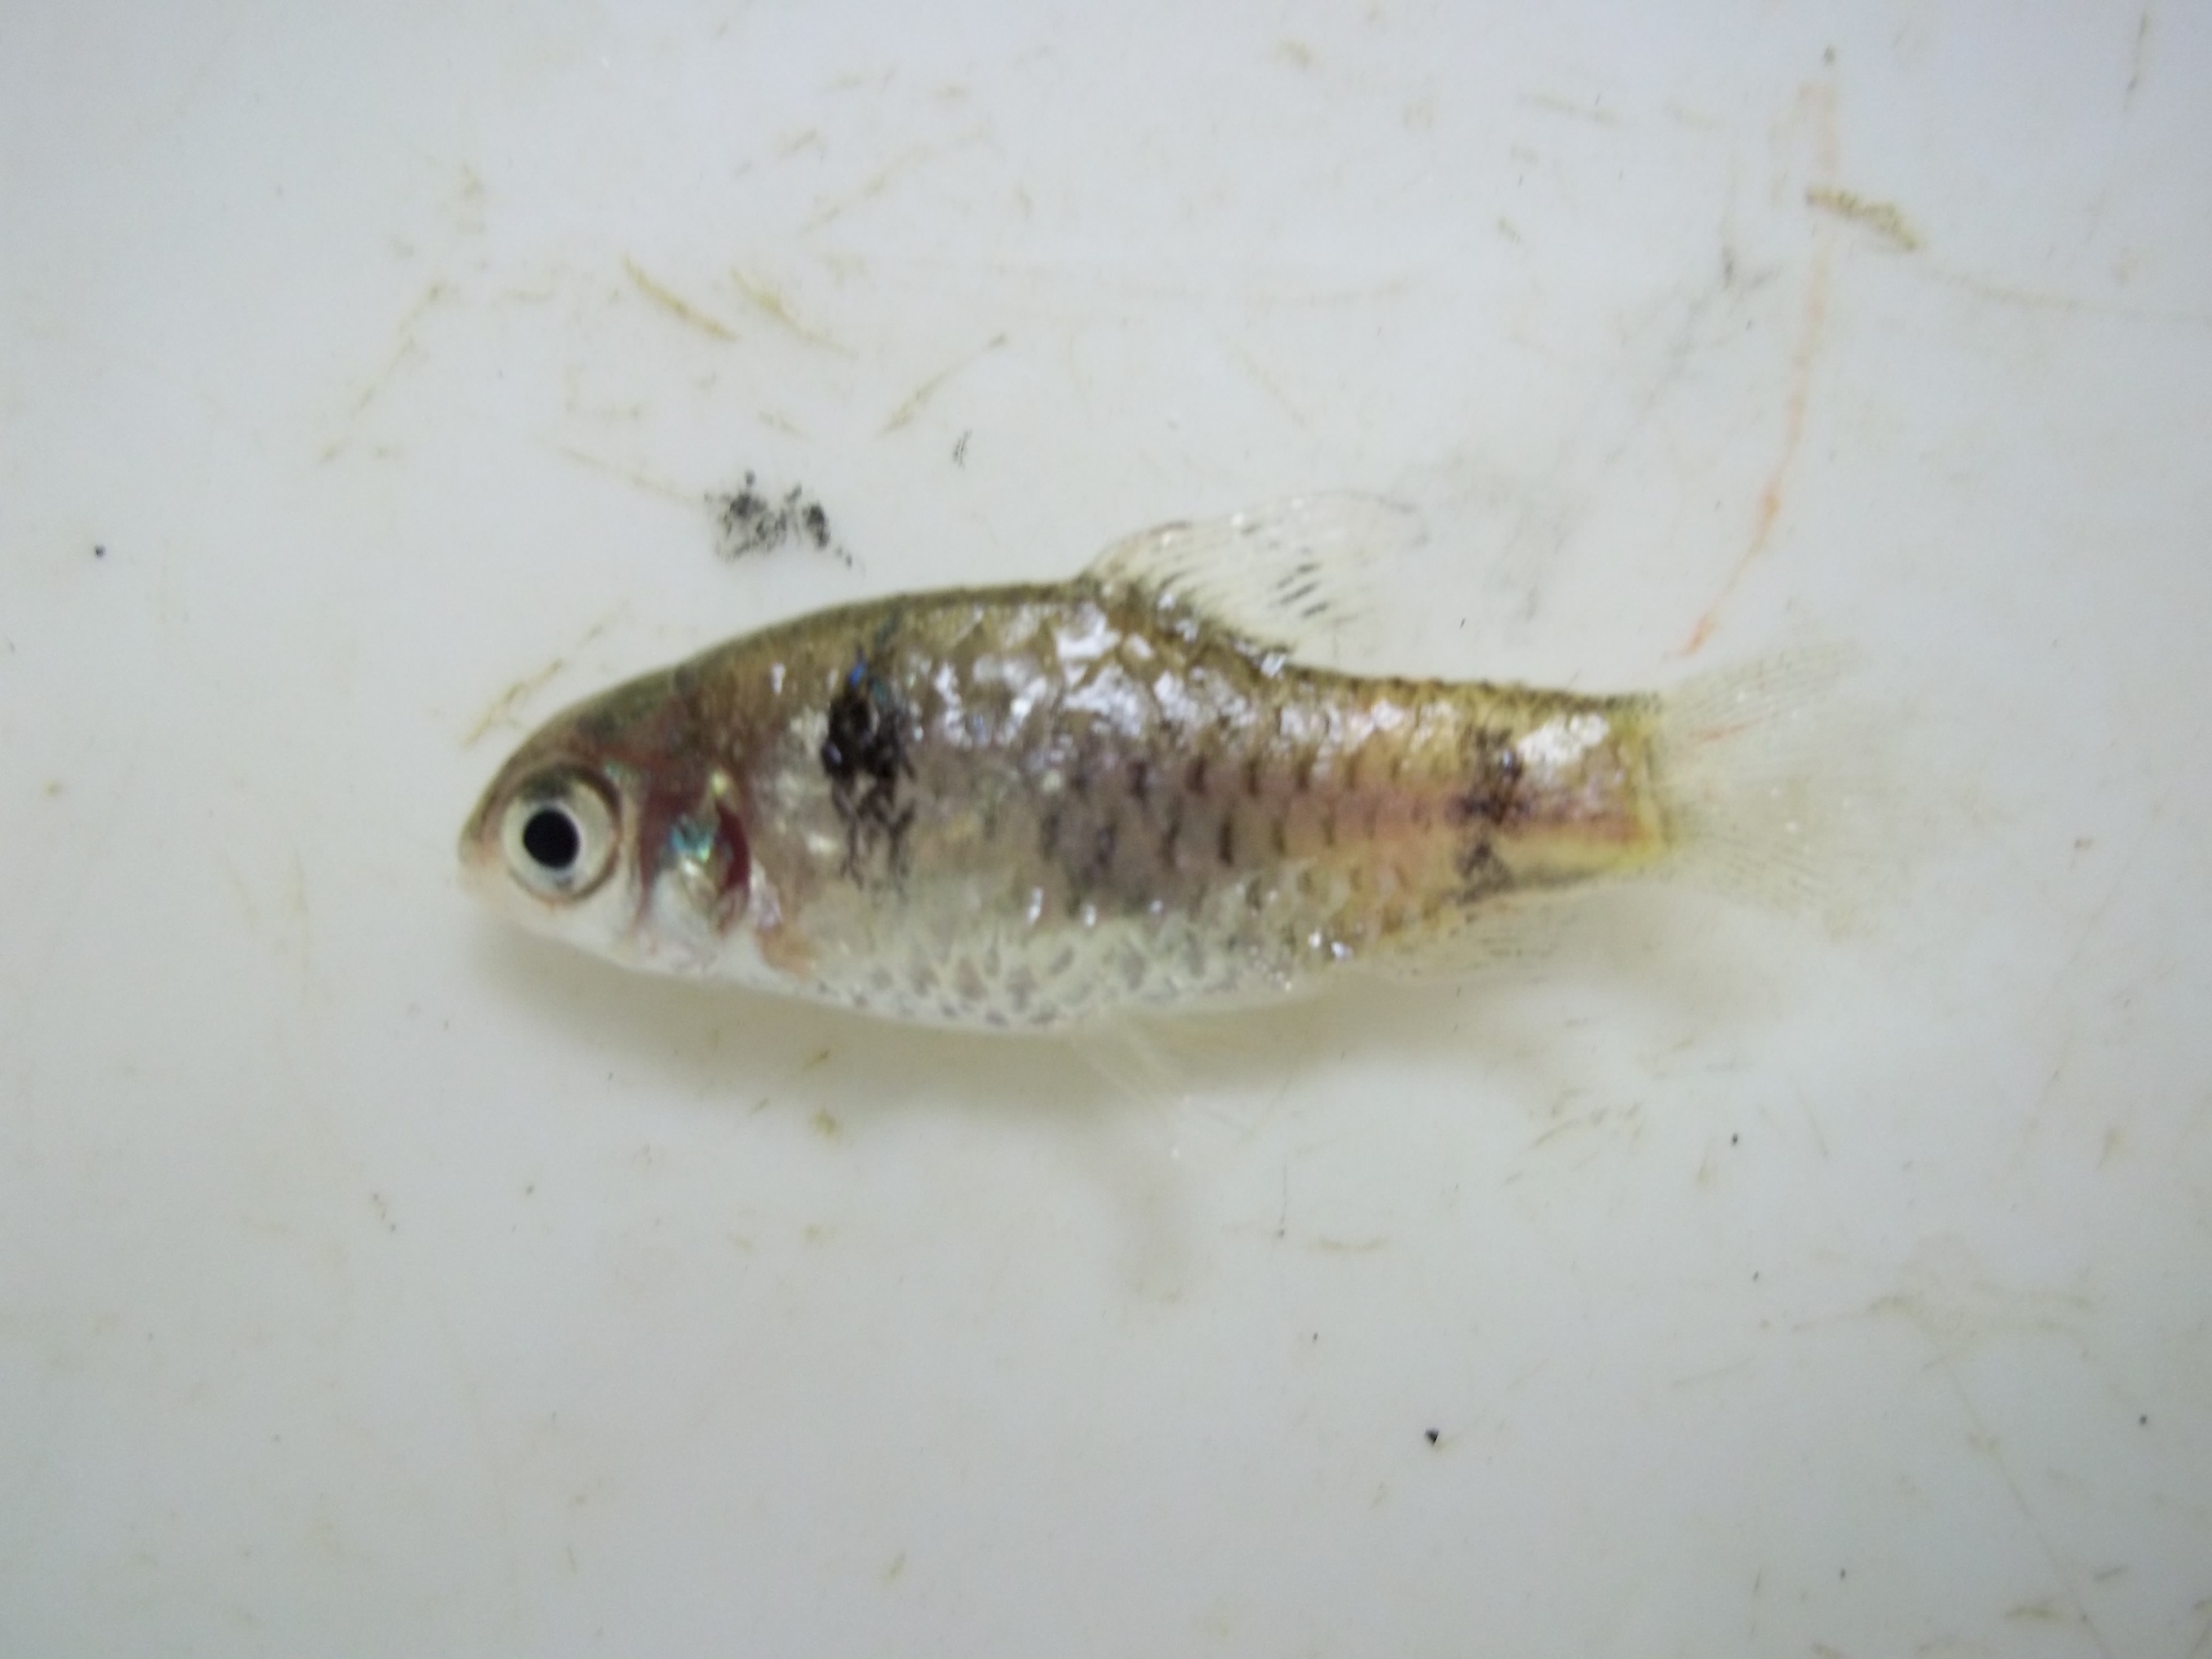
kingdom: Animalia
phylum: Chordata
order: Cypriniformes
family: Cyprinidae
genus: Pethia
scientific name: Pethia padamya
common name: Odessa barb
